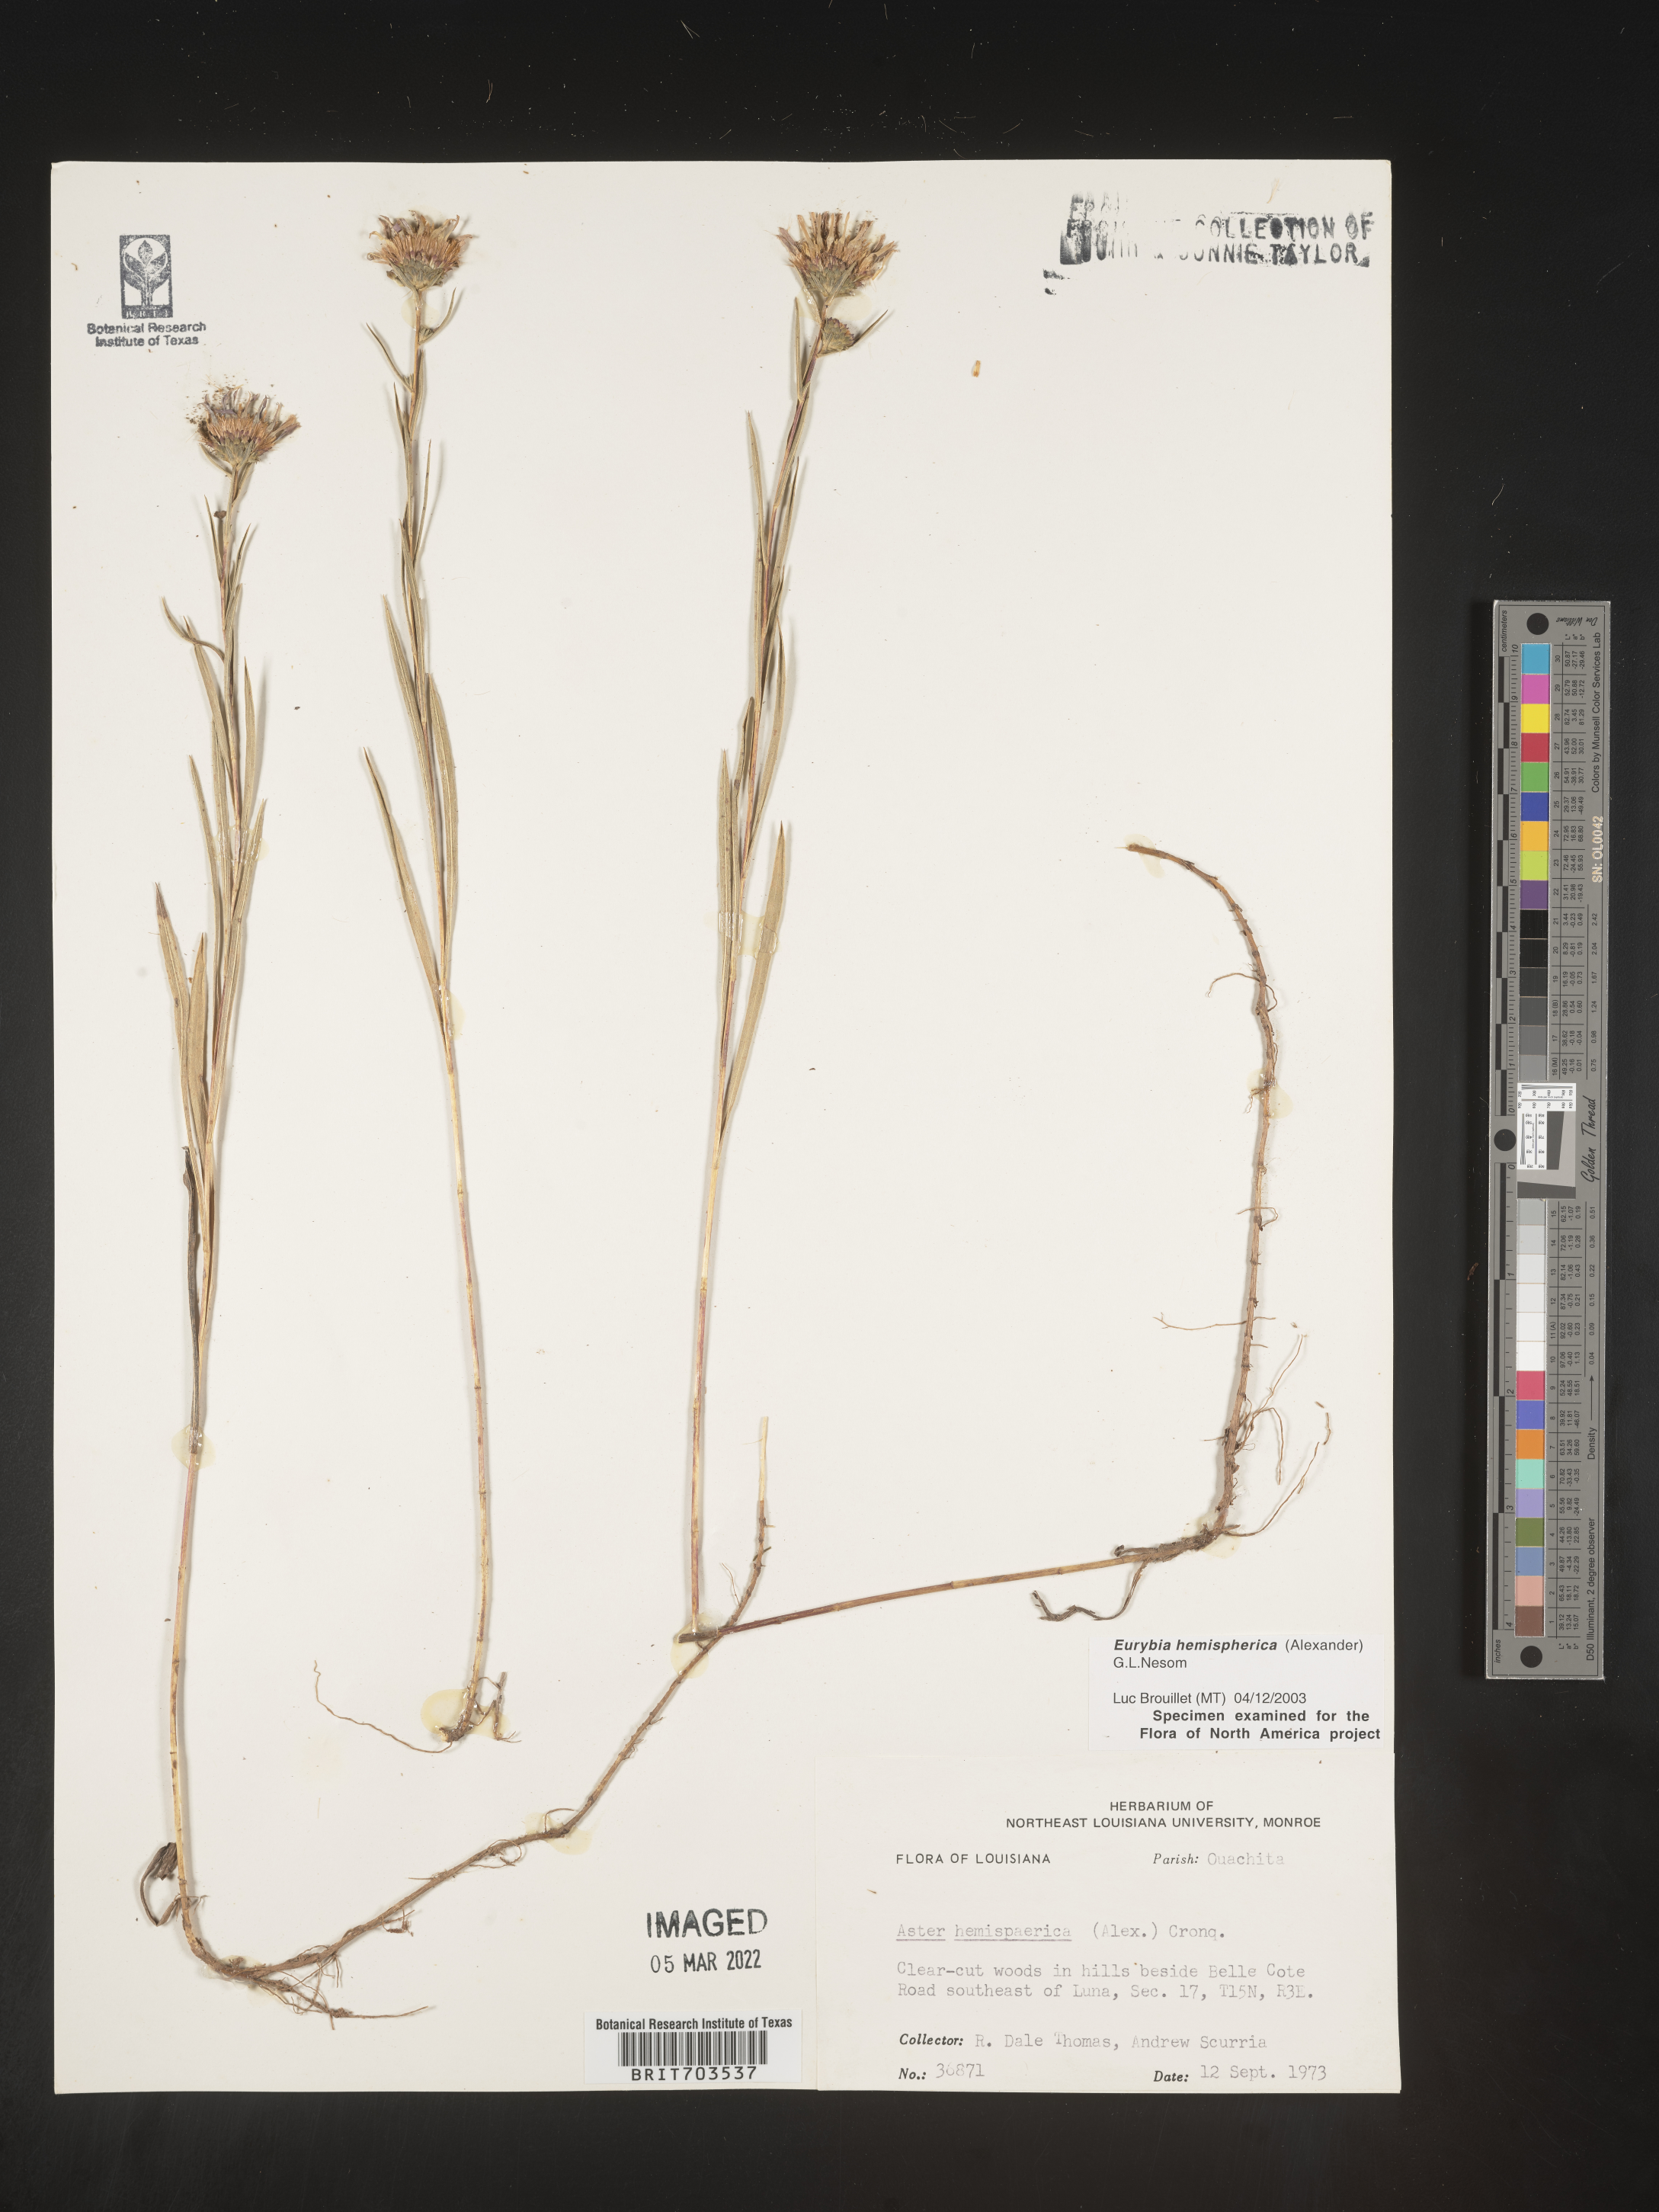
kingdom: Plantae
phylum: Tracheophyta
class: Magnoliopsida
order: Asterales
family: Asteraceae
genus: Eurybia
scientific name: Eurybia hemispherica
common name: Showy aster
